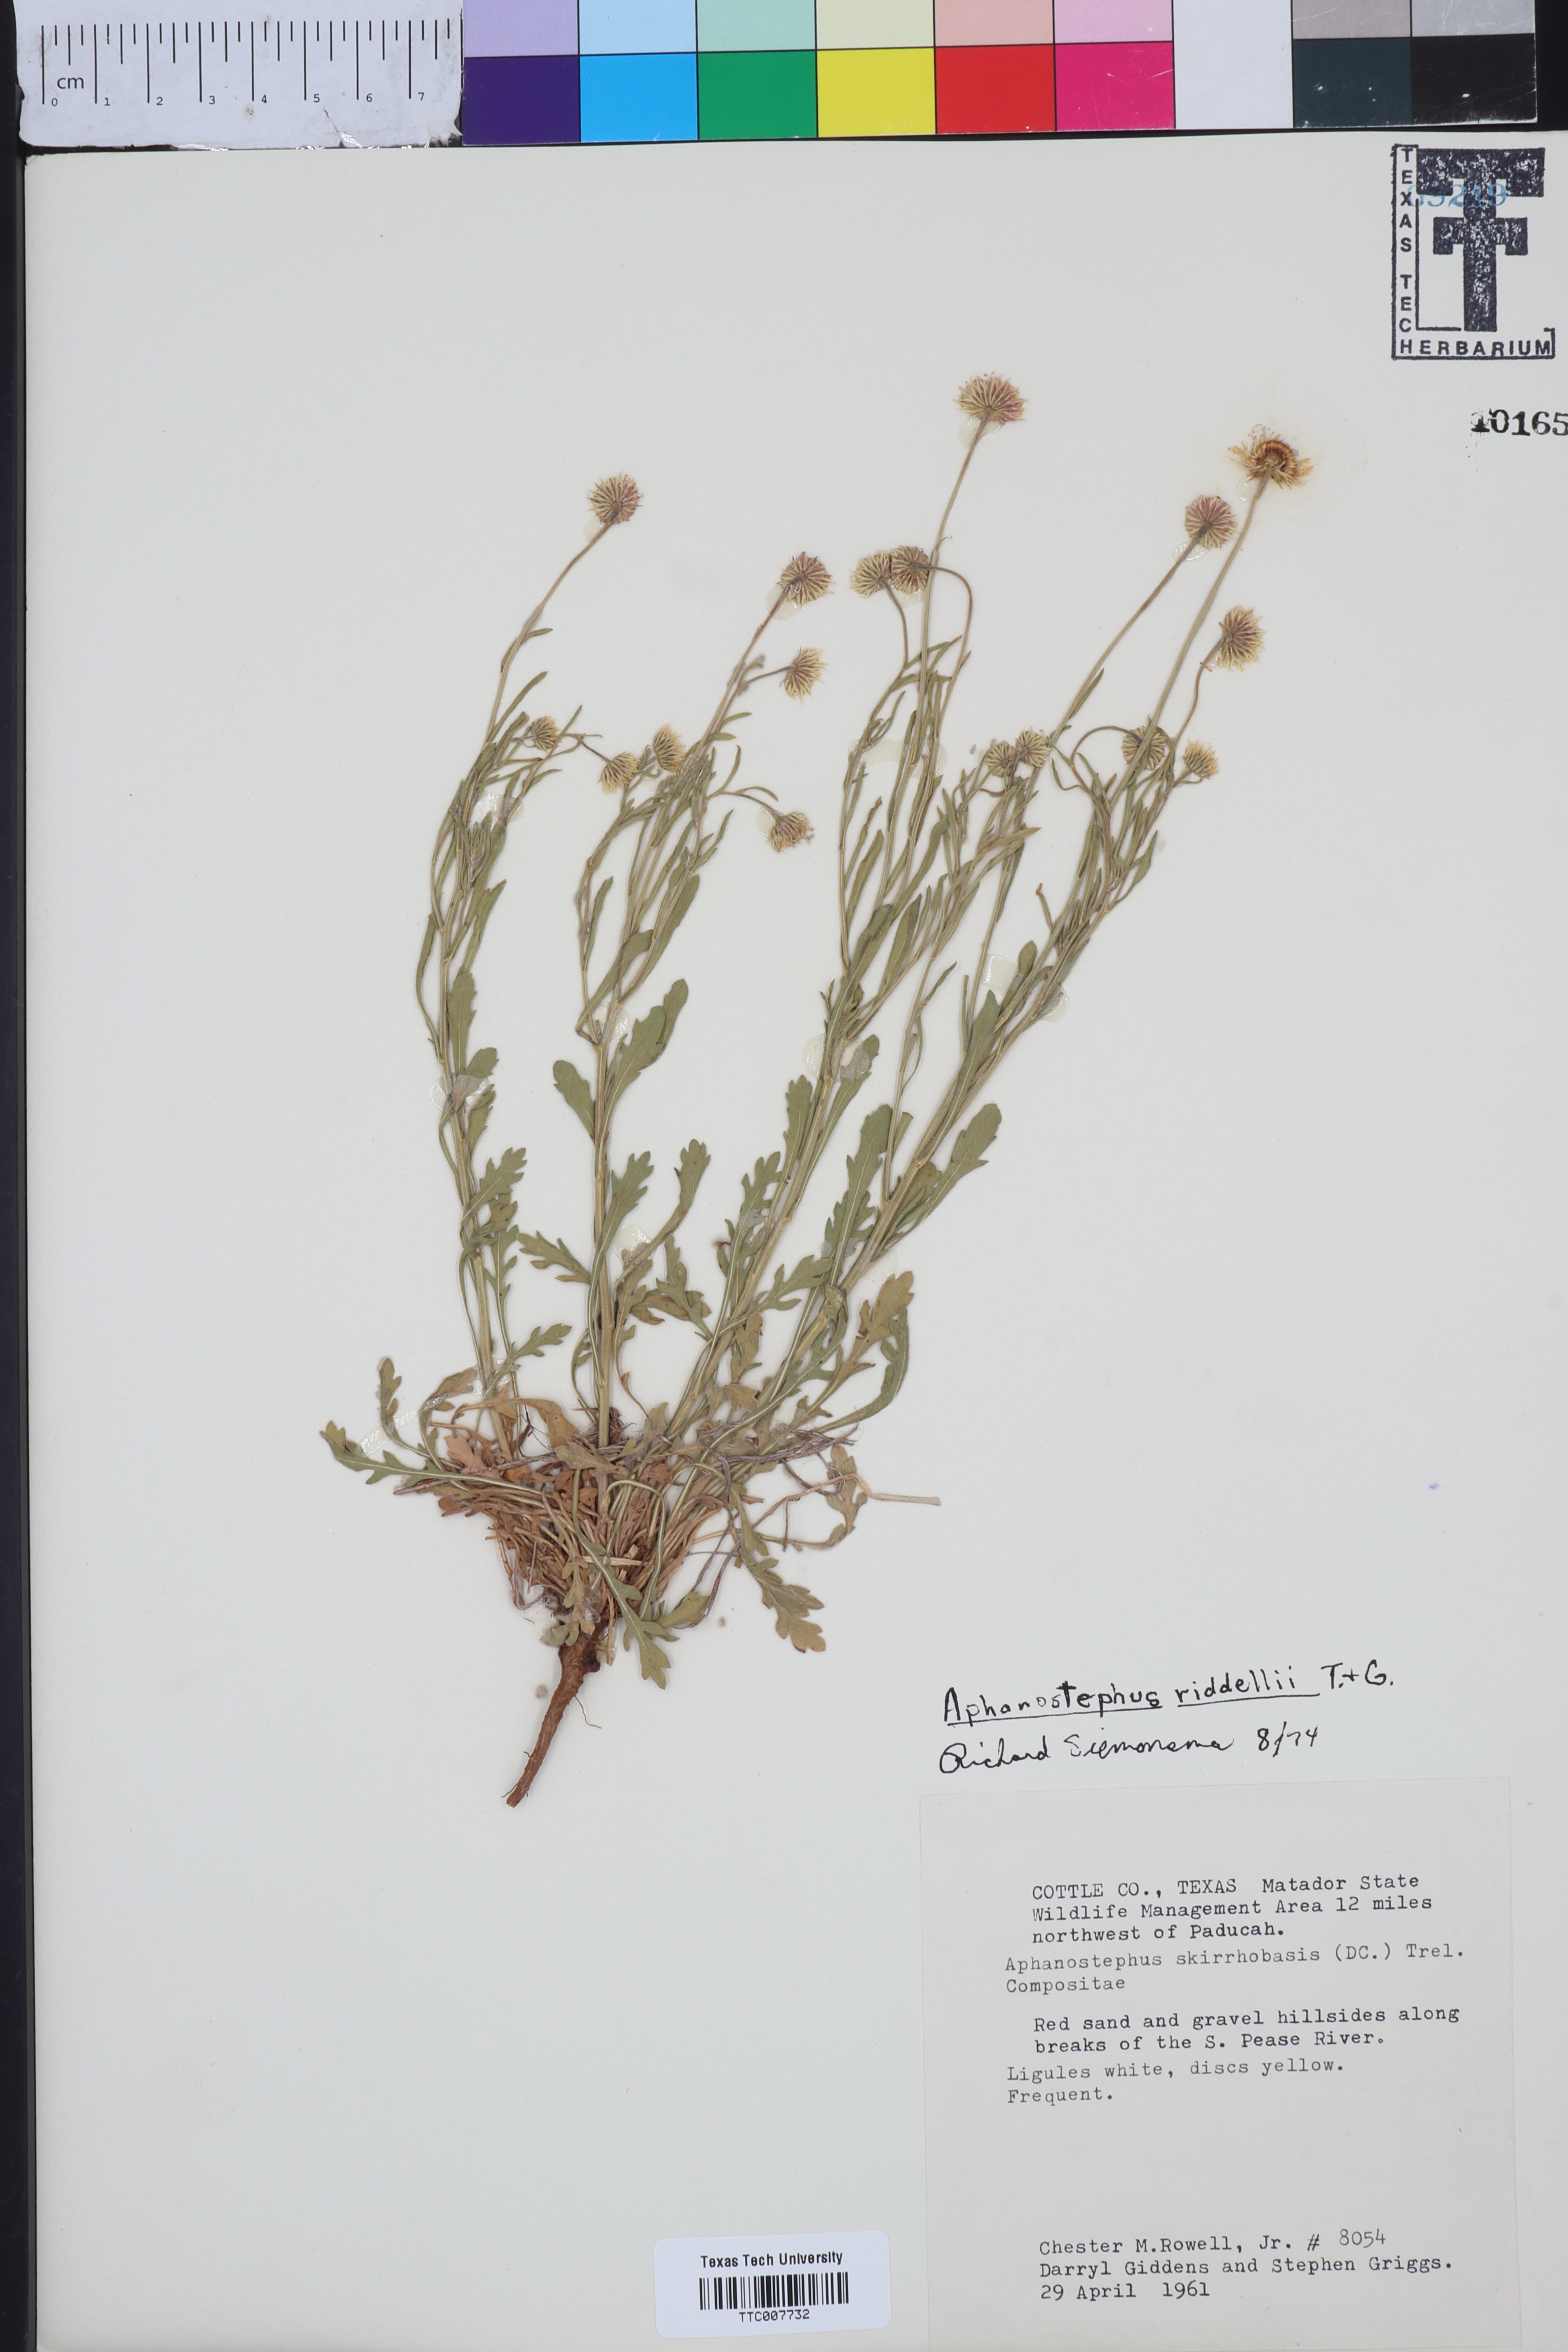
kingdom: Plantae
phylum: Tracheophyta
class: Magnoliopsida
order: Asterales
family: Asteraceae
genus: Aphanostephus
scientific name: Aphanostephus riddellii
